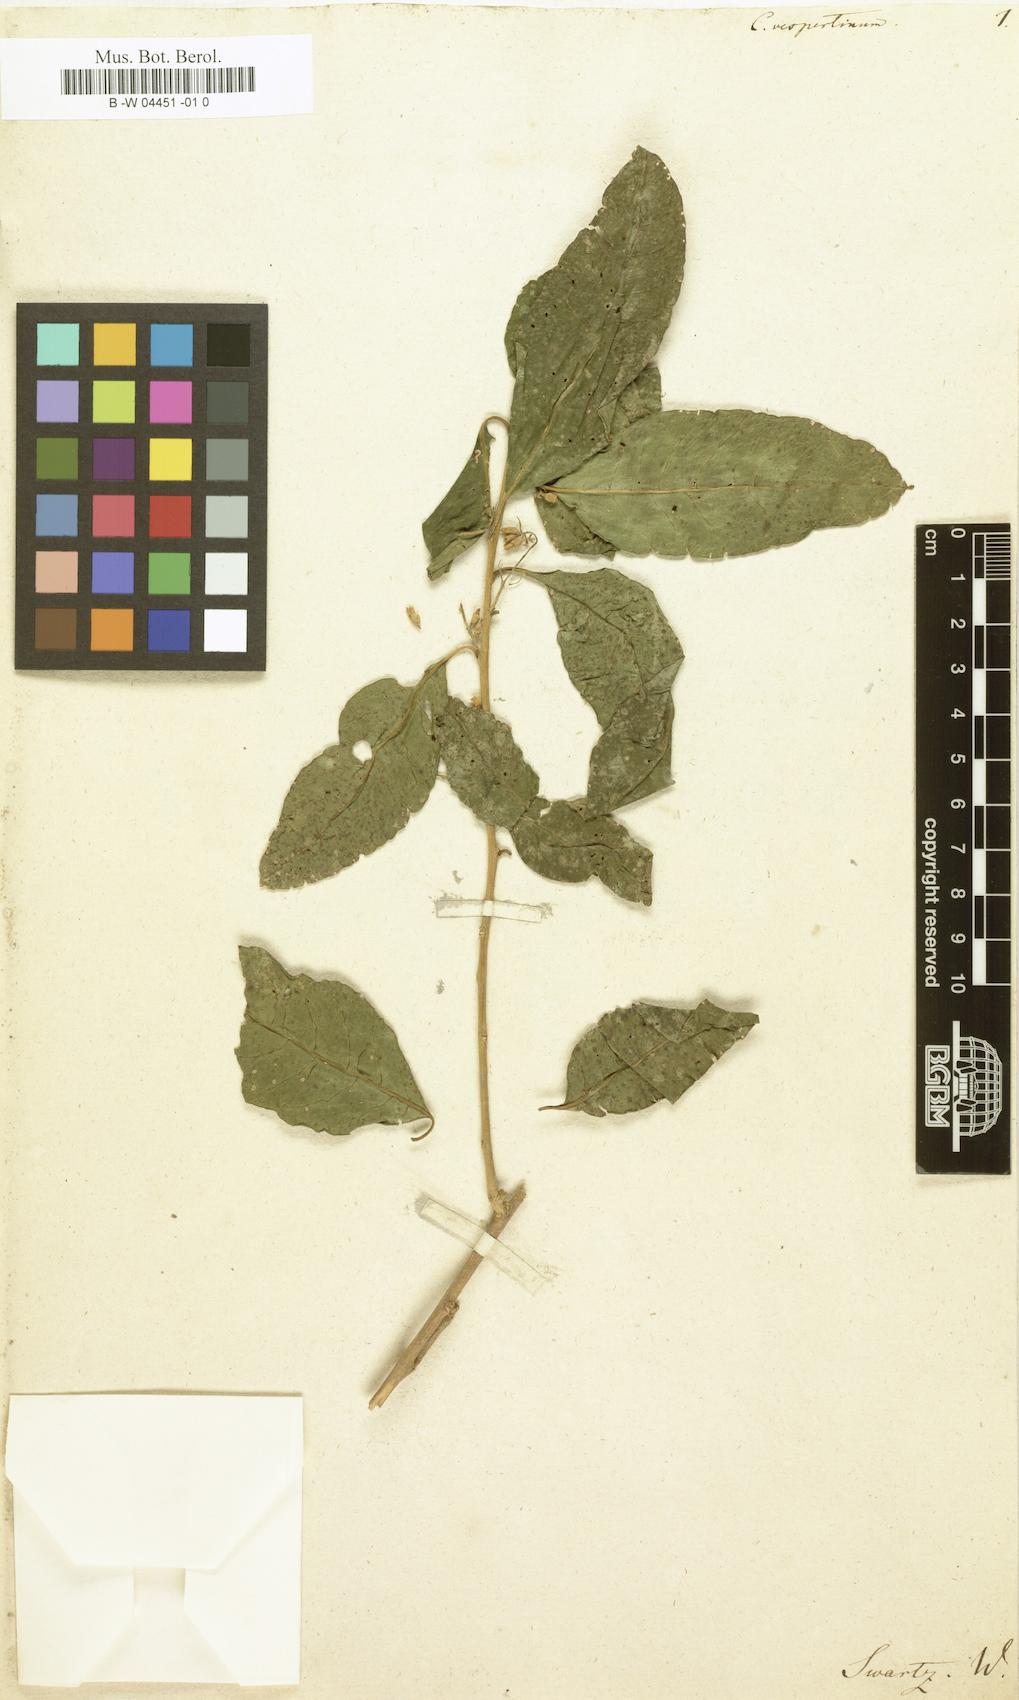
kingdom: Plantae
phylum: Tracheophyta
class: Magnoliopsida
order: Solanales
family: Solanaceae
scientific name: Solanaceae
